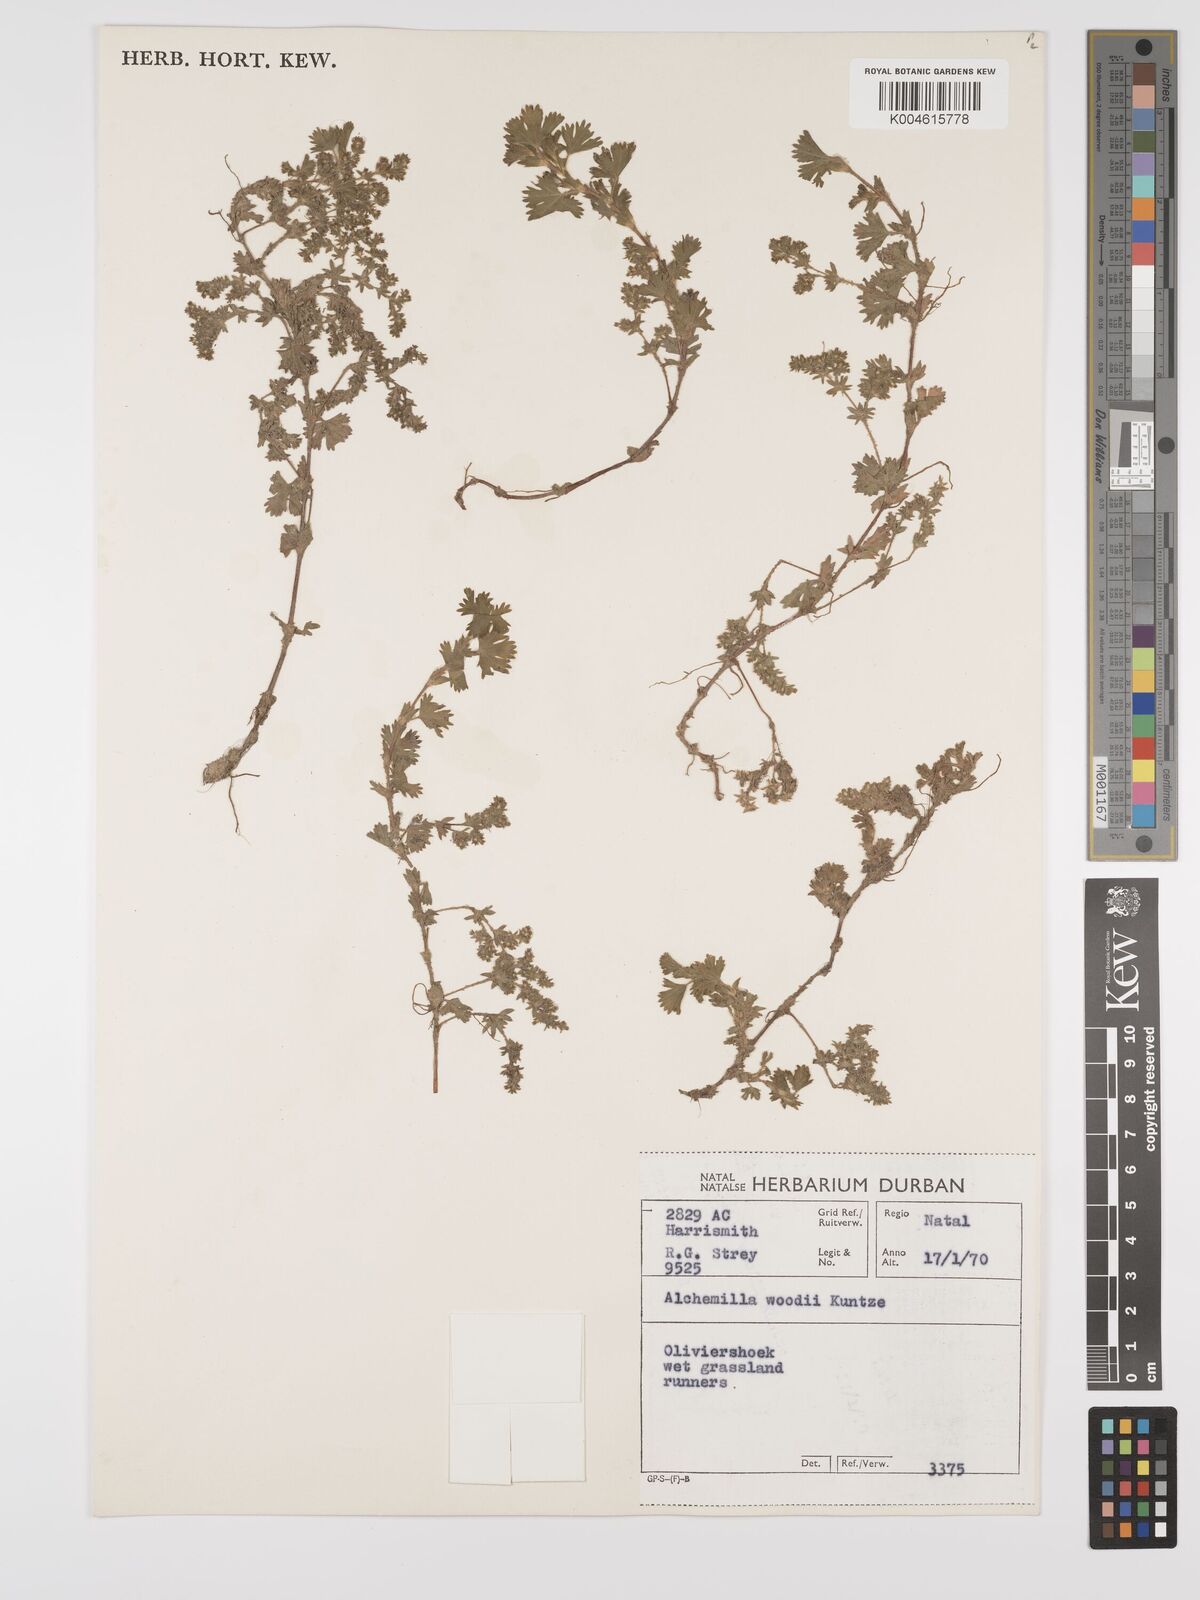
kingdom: Plantae
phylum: Tracheophyta
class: Magnoliopsida
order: Rosales
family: Rosaceae
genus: Alchemilla
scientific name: Alchemilla woodii
